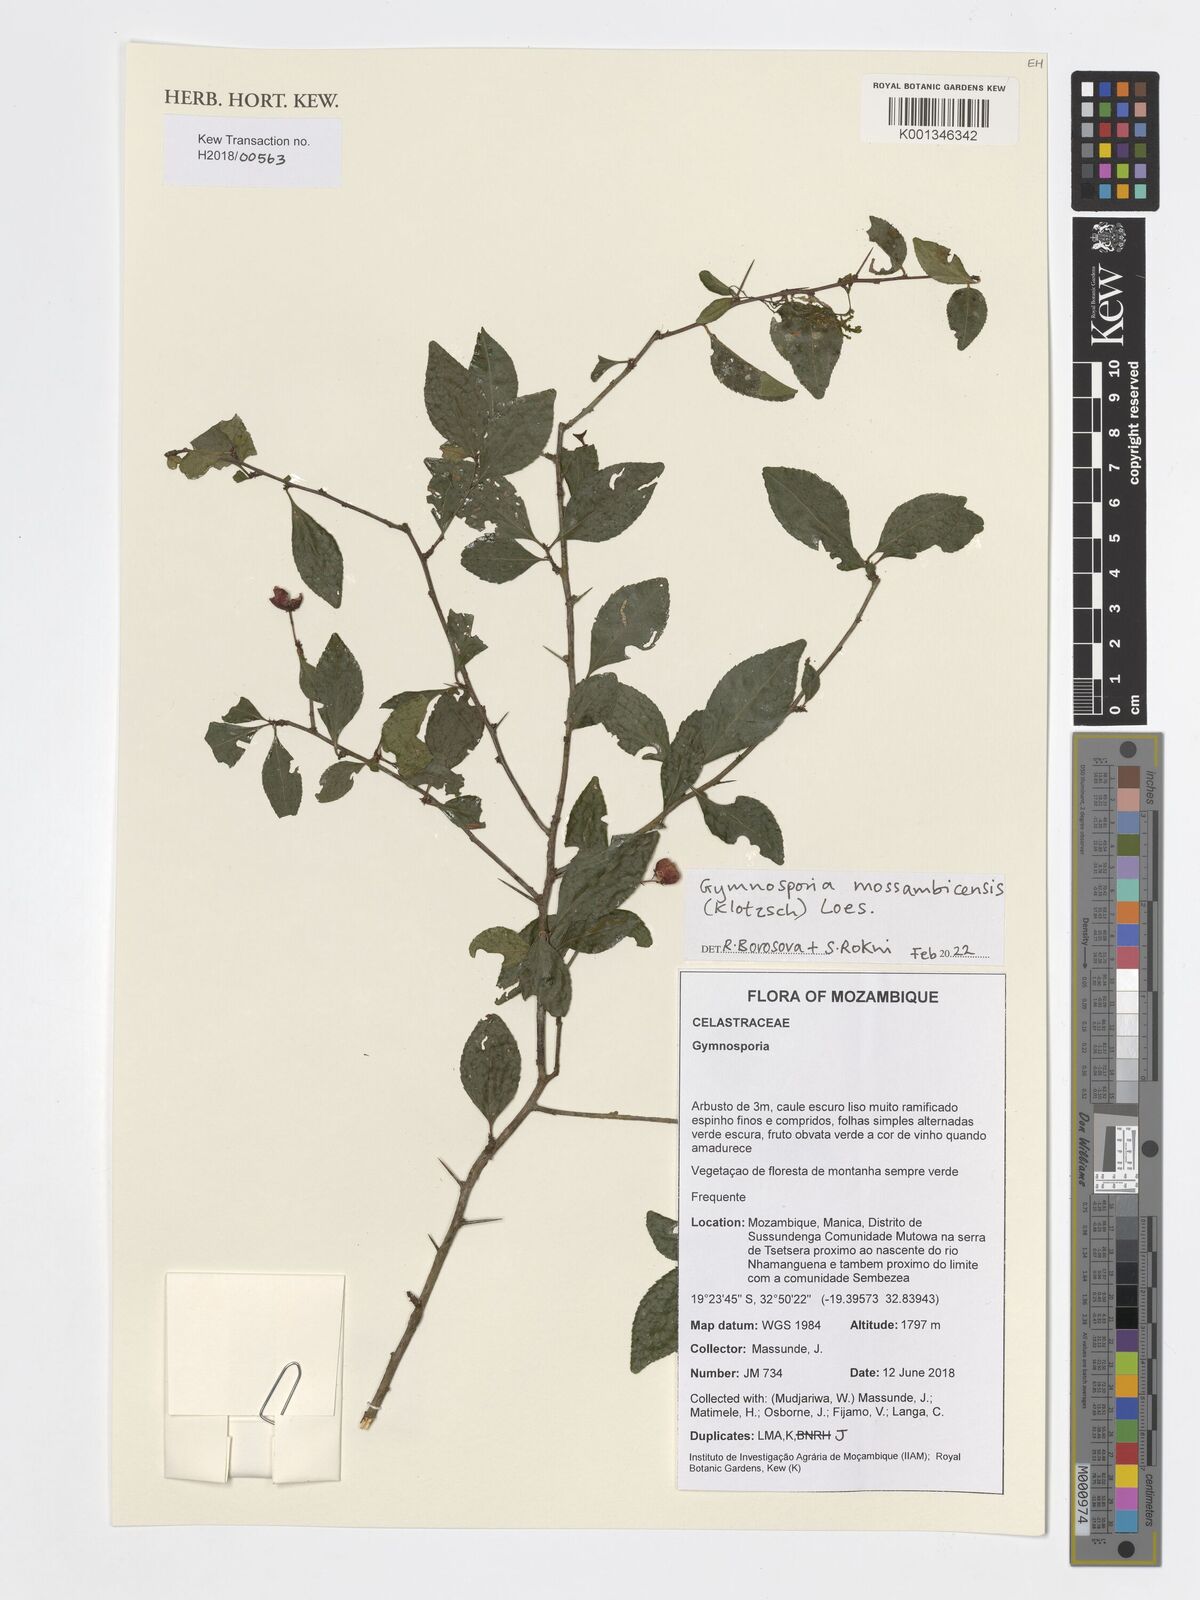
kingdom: Plantae
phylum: Tracheophyta
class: Magnoliopsida
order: Celastrales
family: Celastraceae
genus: Gymnosporia
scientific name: Gymnosporia mossambicensis
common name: Black forest spike-thorn
